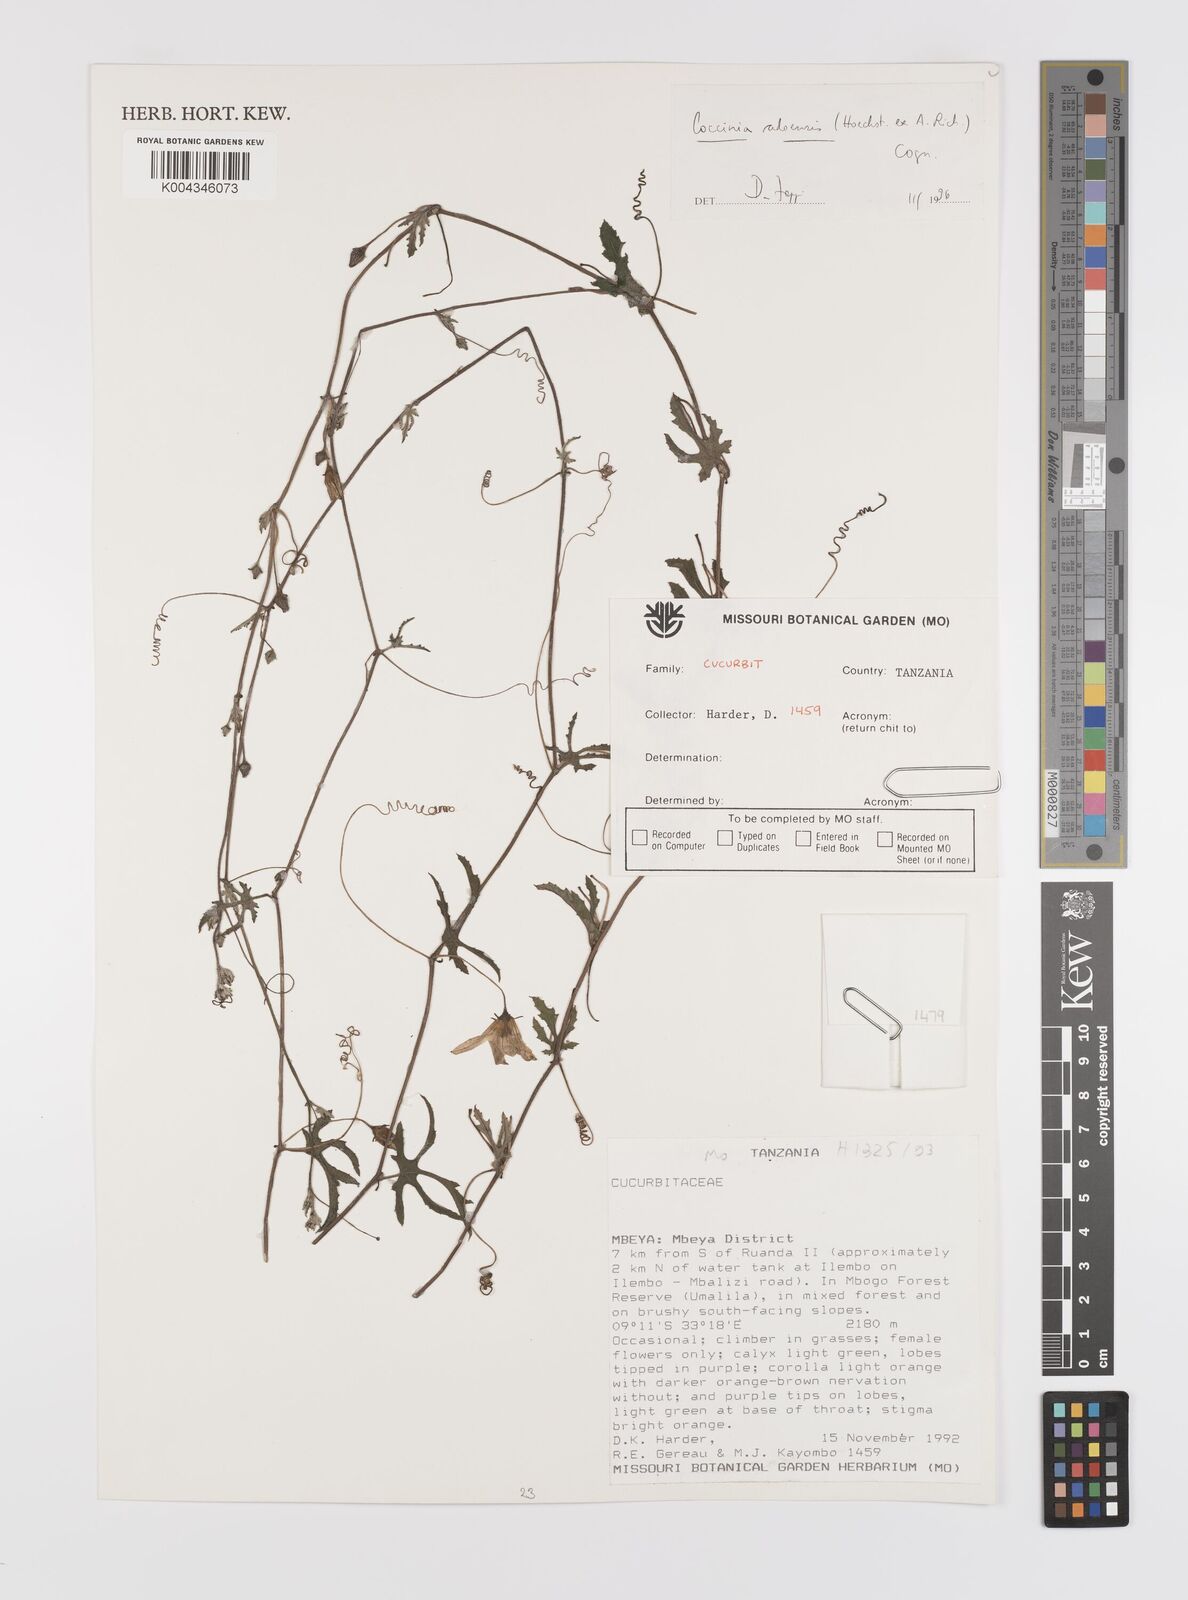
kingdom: Plantae
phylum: Tracheophyta
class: Magnoliopsida
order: Cucurbitales
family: Cucurbitaceae
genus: Coccinia
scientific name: Coccinia adoensis
